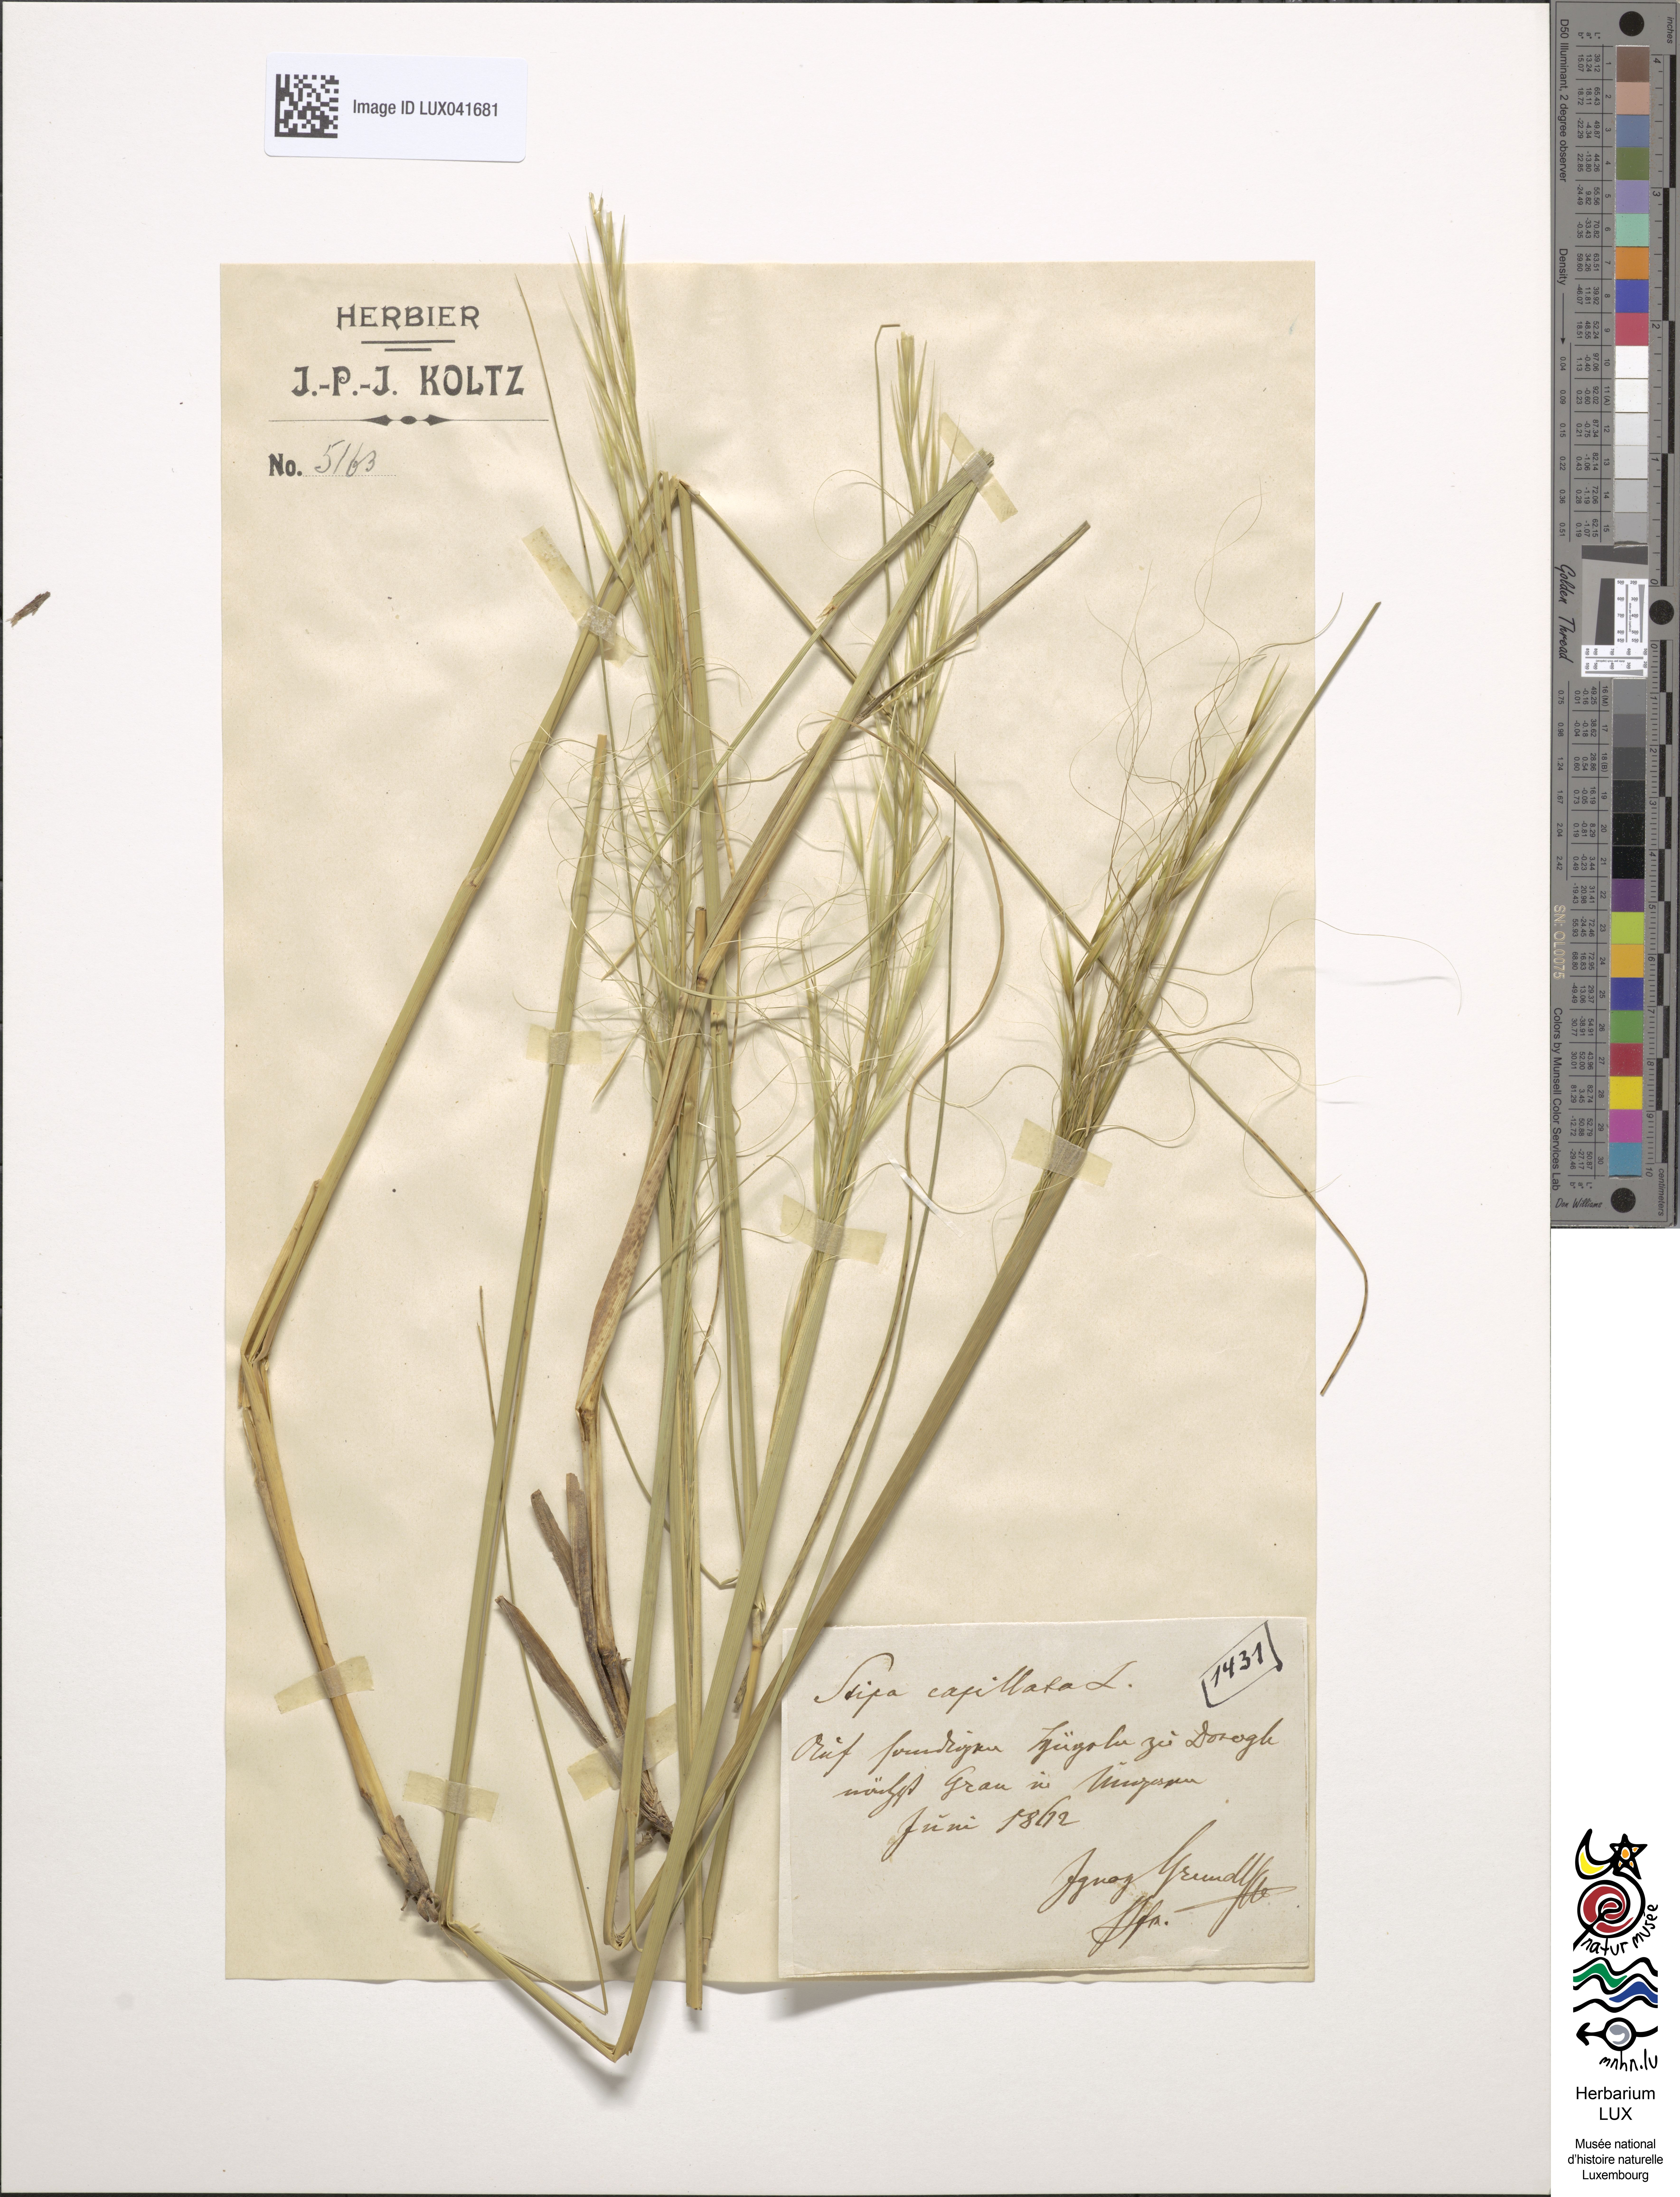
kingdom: Plantae
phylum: Tracheophyta
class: Liliopsida
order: Poales
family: Poaceae
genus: Stipa
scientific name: Stipa capillata
